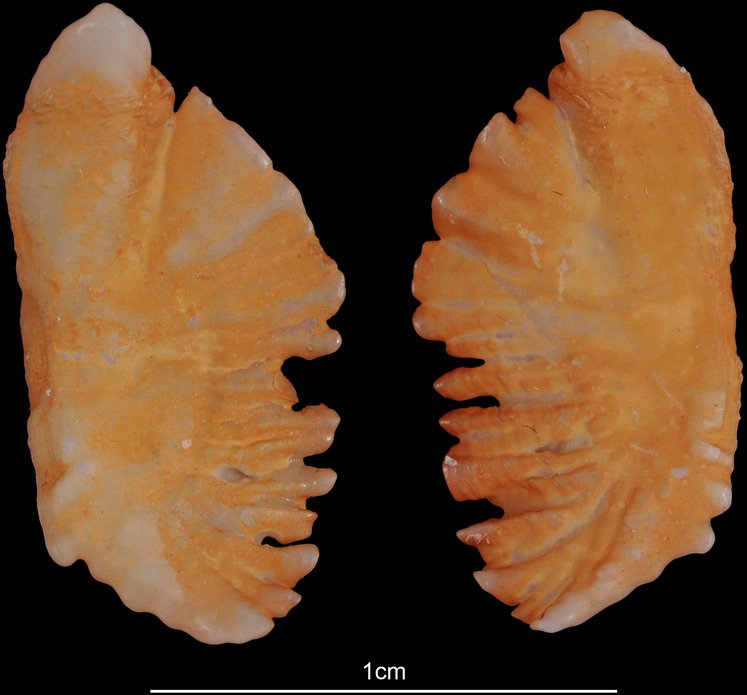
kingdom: Animalia
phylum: Chordata
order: Perciformes
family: Percidae
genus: Sander
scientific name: Sander lucioperca
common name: Pikeperch
